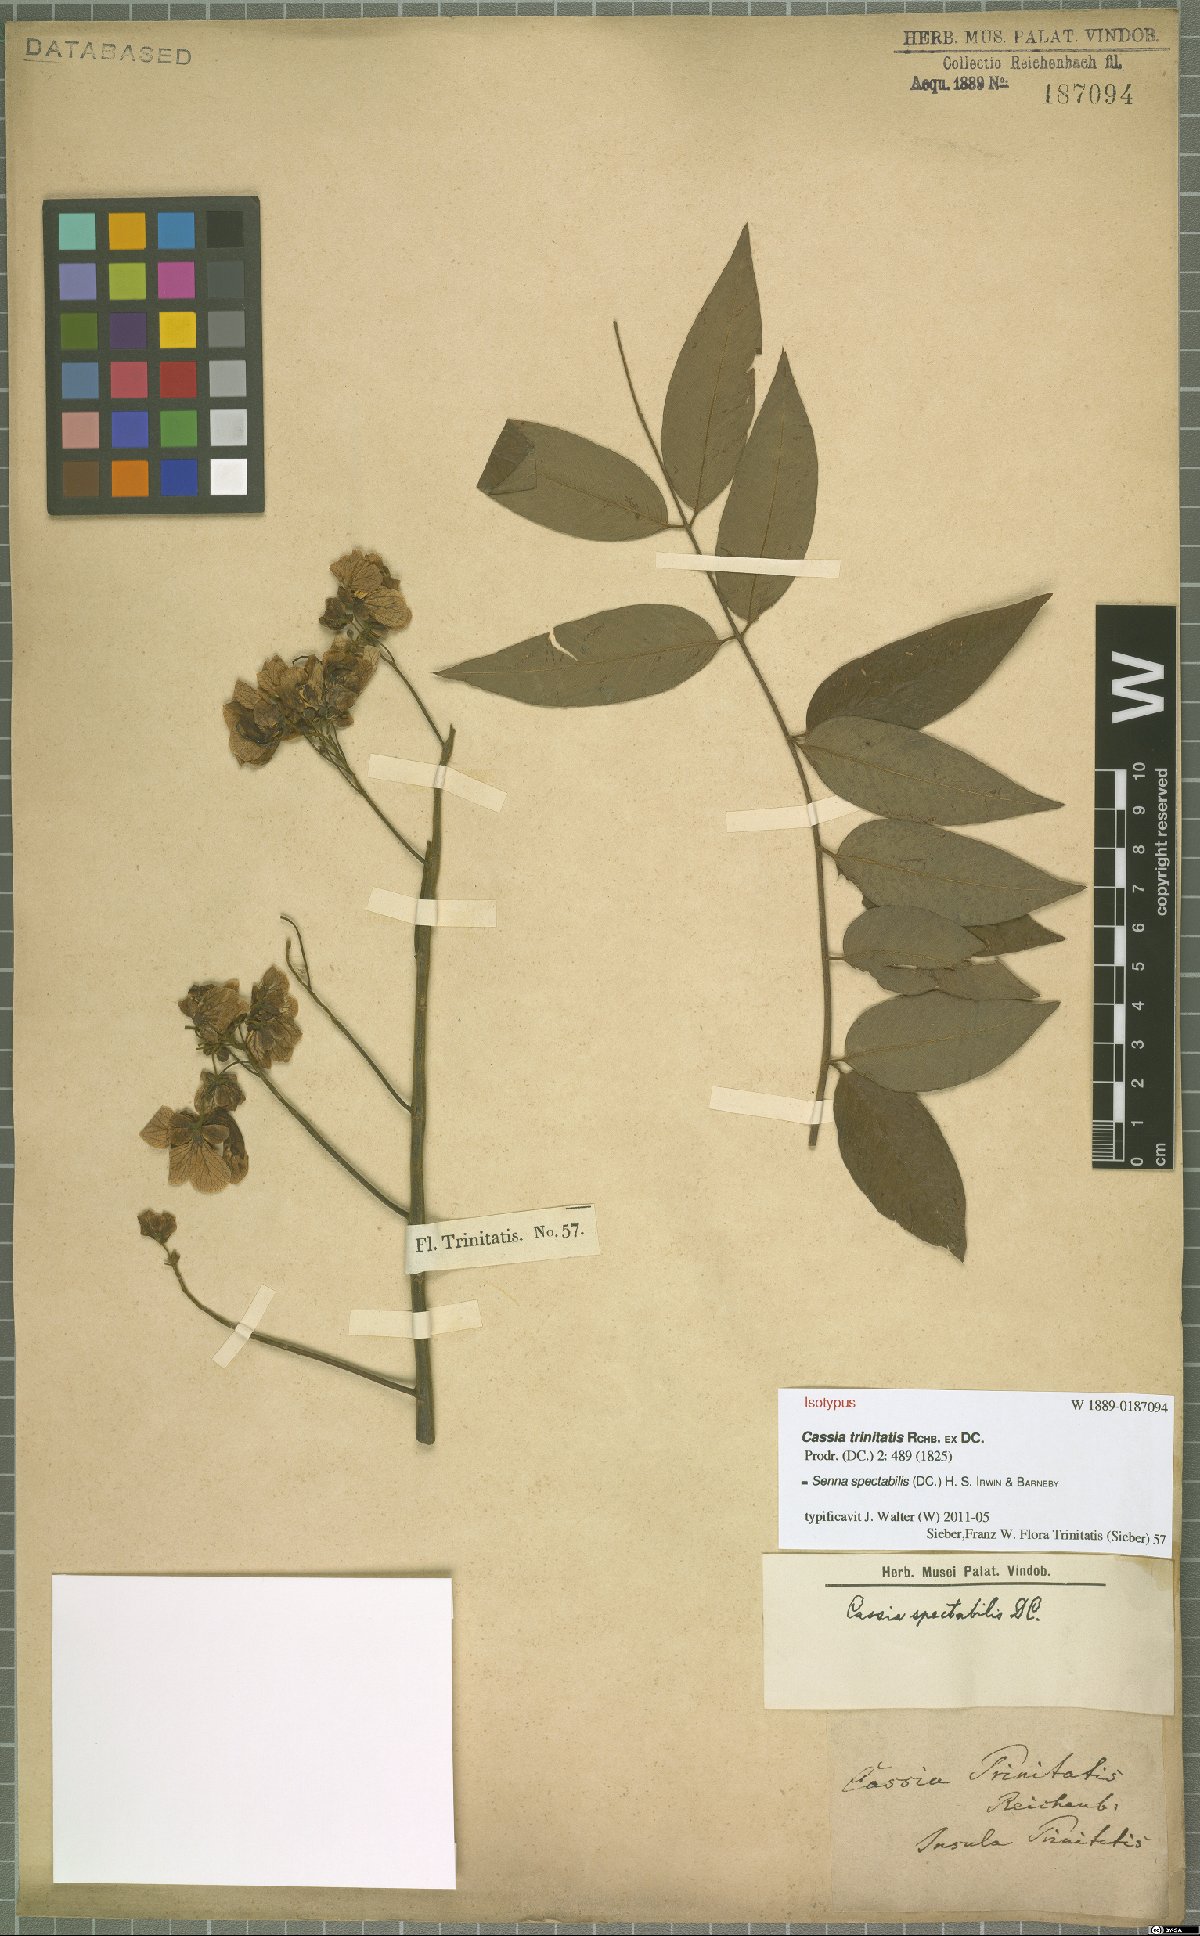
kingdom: Plantae
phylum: Tracheophyta
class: Magnoliopsida
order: Fabales
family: Fabaceae
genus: Senna
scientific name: Senna spectabilis
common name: Casia amarilla
